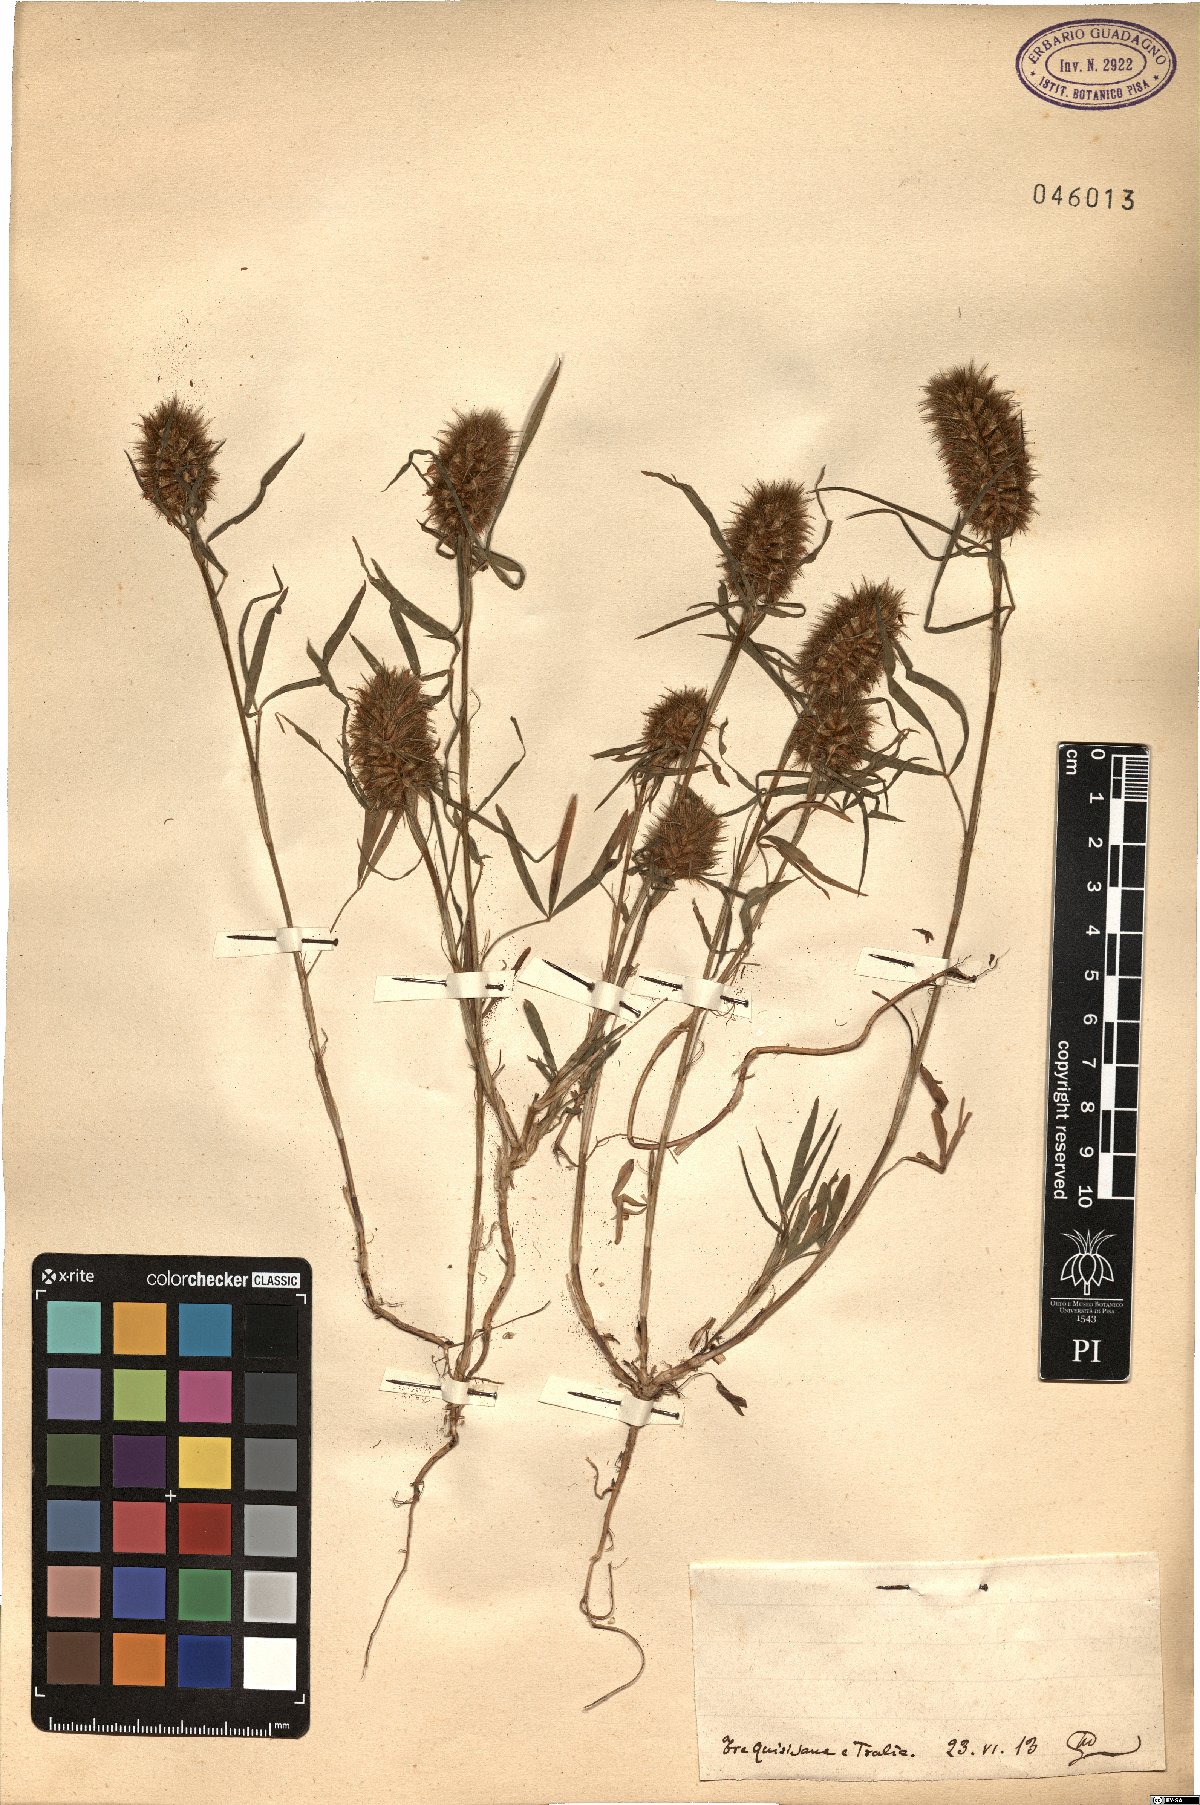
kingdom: Plantae
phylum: Tracheophyta
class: Magnoliopsida
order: Fabales
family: Fabaceae
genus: Trifolium
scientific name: Trifolium
